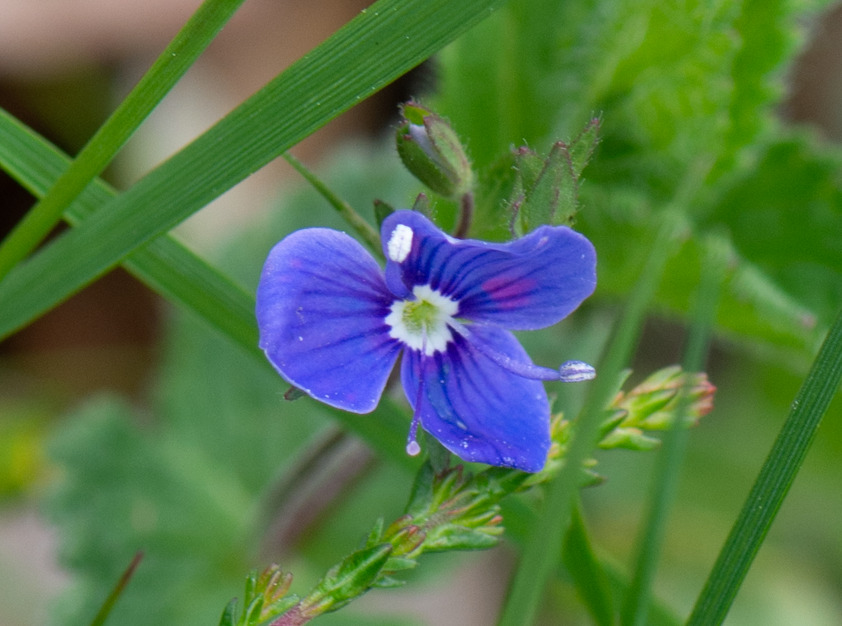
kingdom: Plantae
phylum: Tracheophyta
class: Magnoliopsida
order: Lamiales
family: Plantaginaceae
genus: Veronica
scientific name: Veronica chamaedrys
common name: Tveskægget ærenpris
